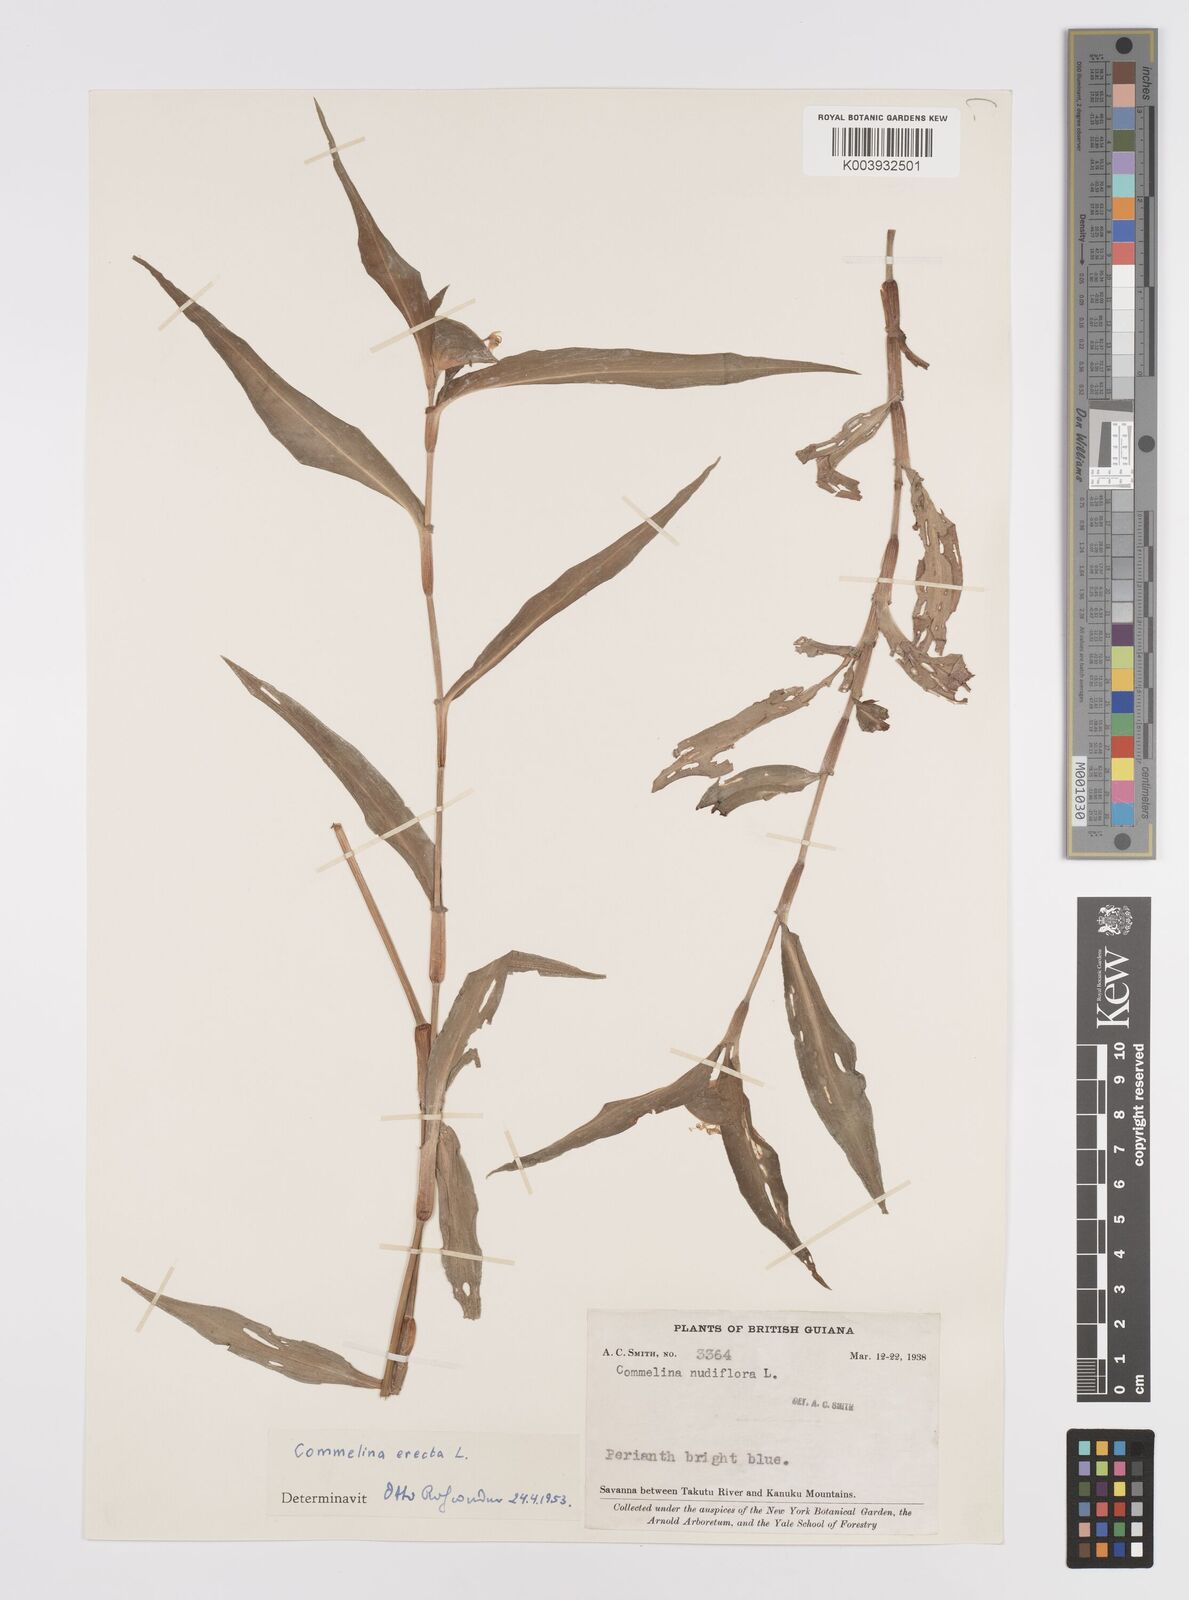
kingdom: Plantae
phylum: Tracheophyta
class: Liliopsida
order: Commelinales
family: Commelinaceae
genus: Commelina
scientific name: Commelina erecta
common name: Blousel blommetjie
